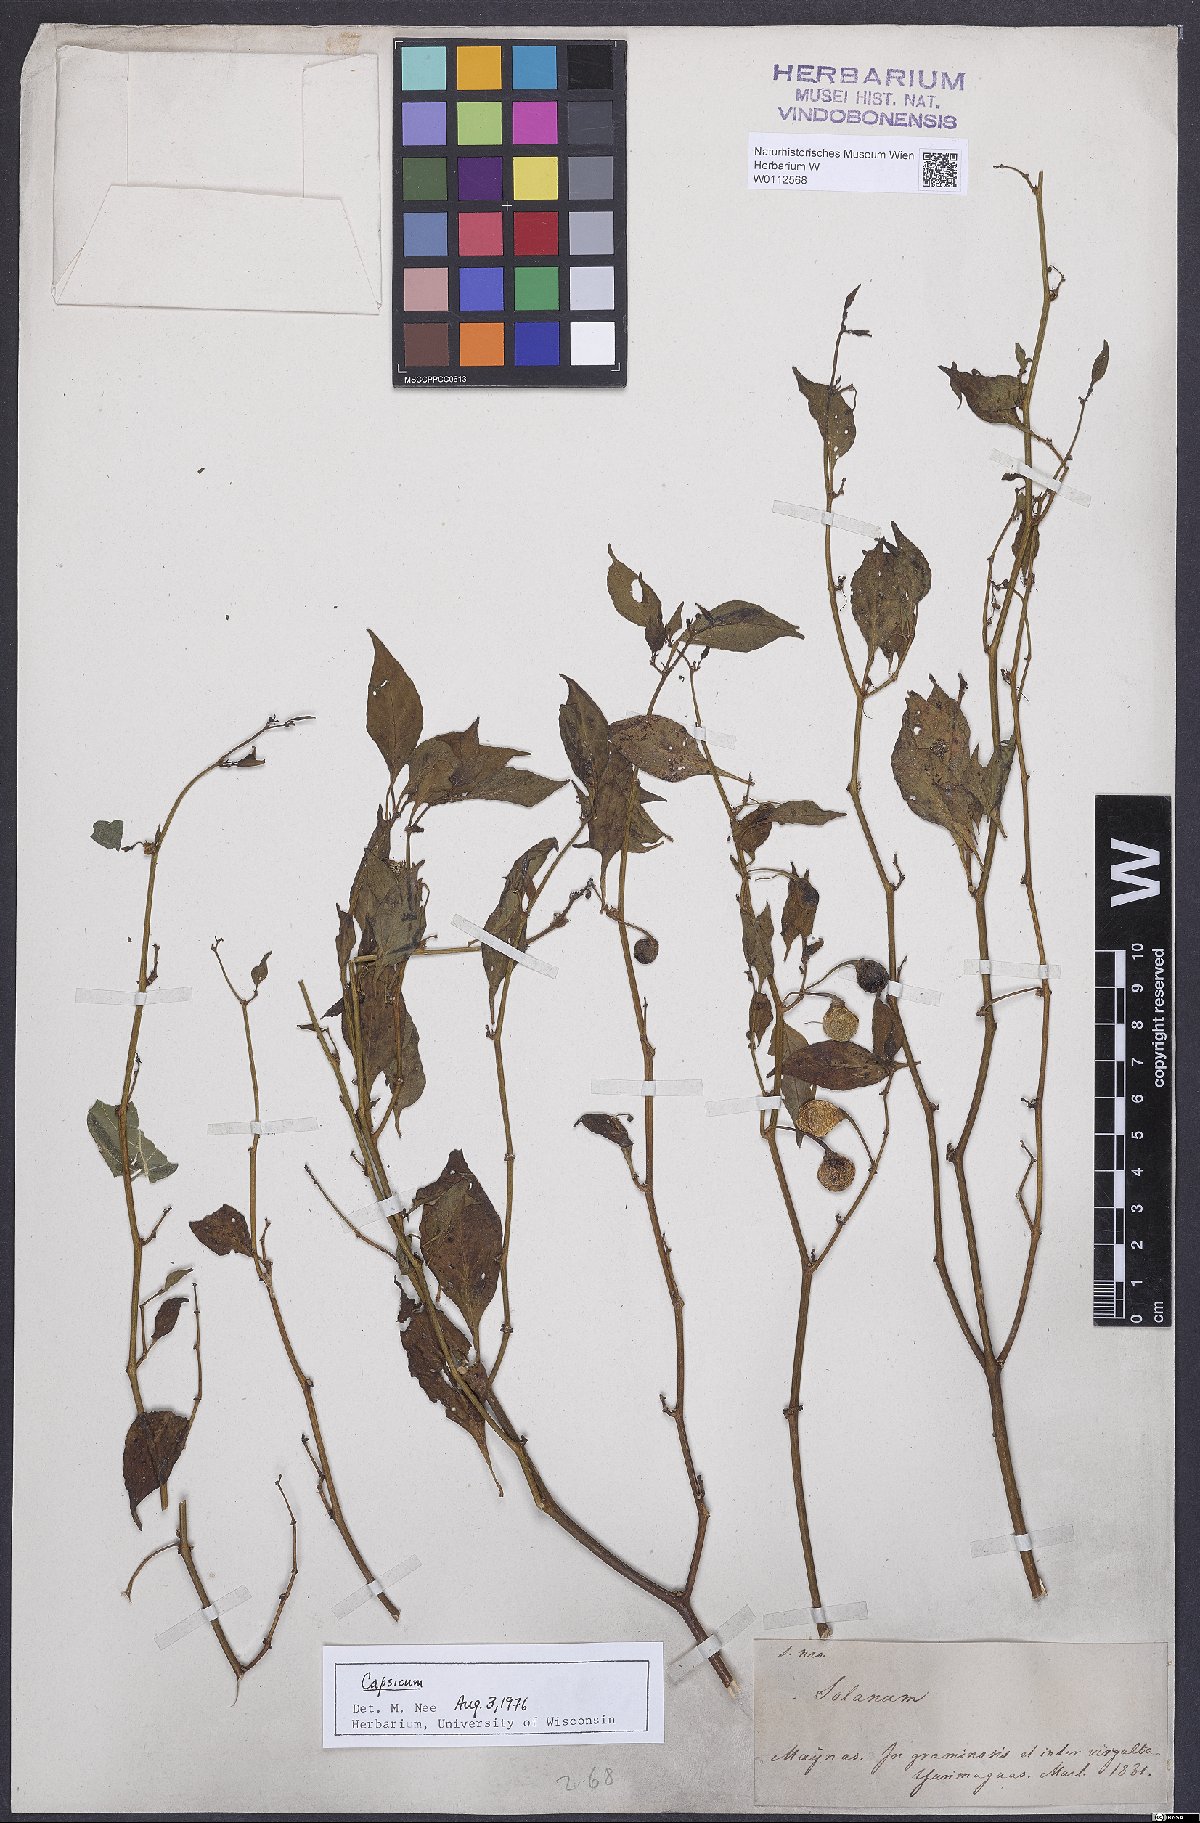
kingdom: Plantae
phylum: Tracheophyta
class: Magnoliopsida
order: Solanales
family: Solanaceae
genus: Capsicum
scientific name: Capsicum
